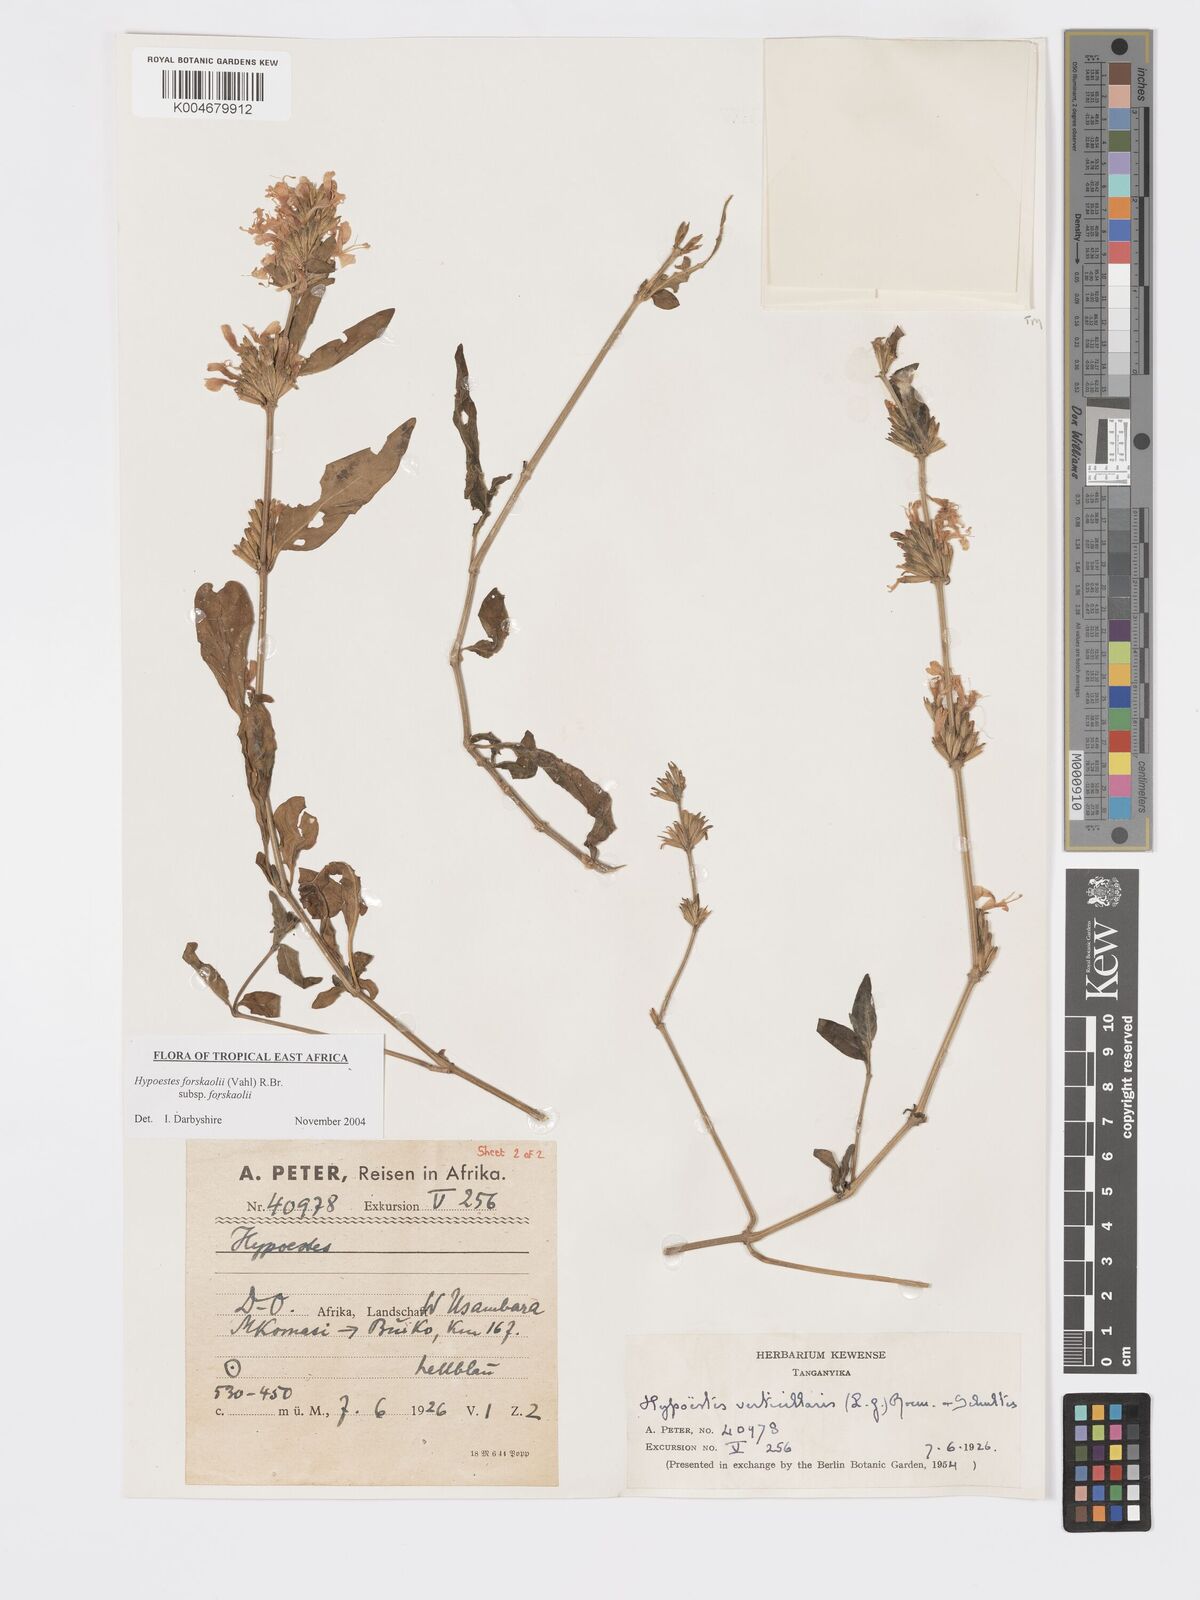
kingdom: Plantae
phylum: Tracheophyta
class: Magnoliopsida
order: Lamiales
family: Acanthaceae
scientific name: Acanthaceae
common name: Acanthaceae
